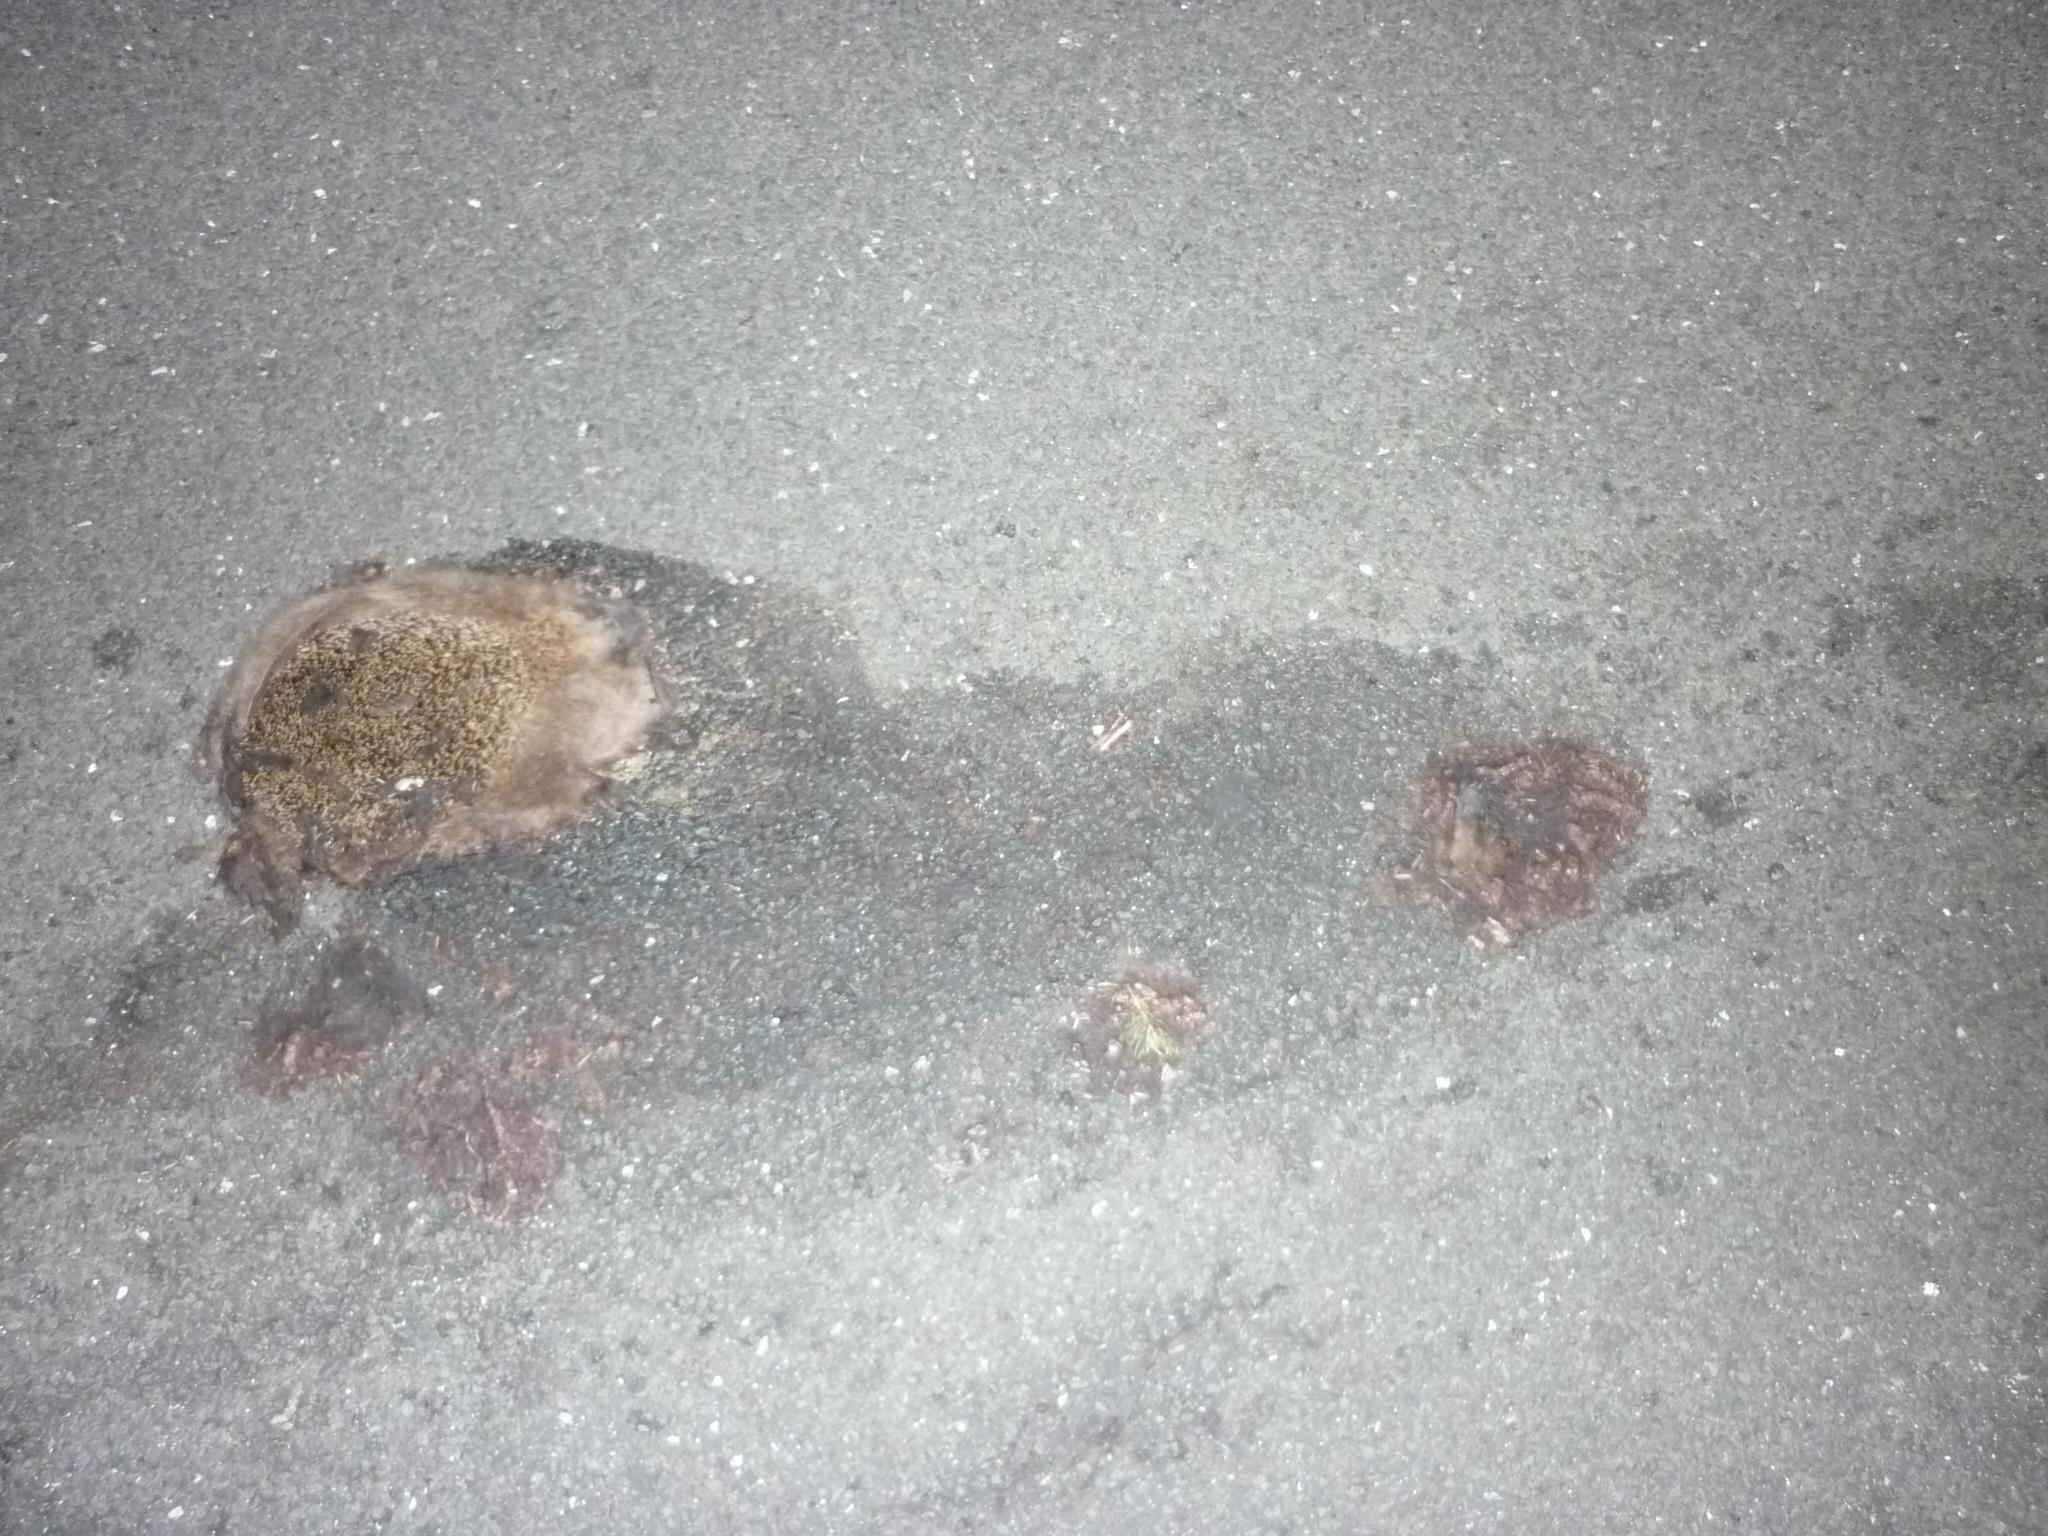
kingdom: Animalia
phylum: Chordata
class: Mammalia
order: Erinaceomorpha
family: Erinaceidae
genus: Erinaceus
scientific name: Erinaceus
